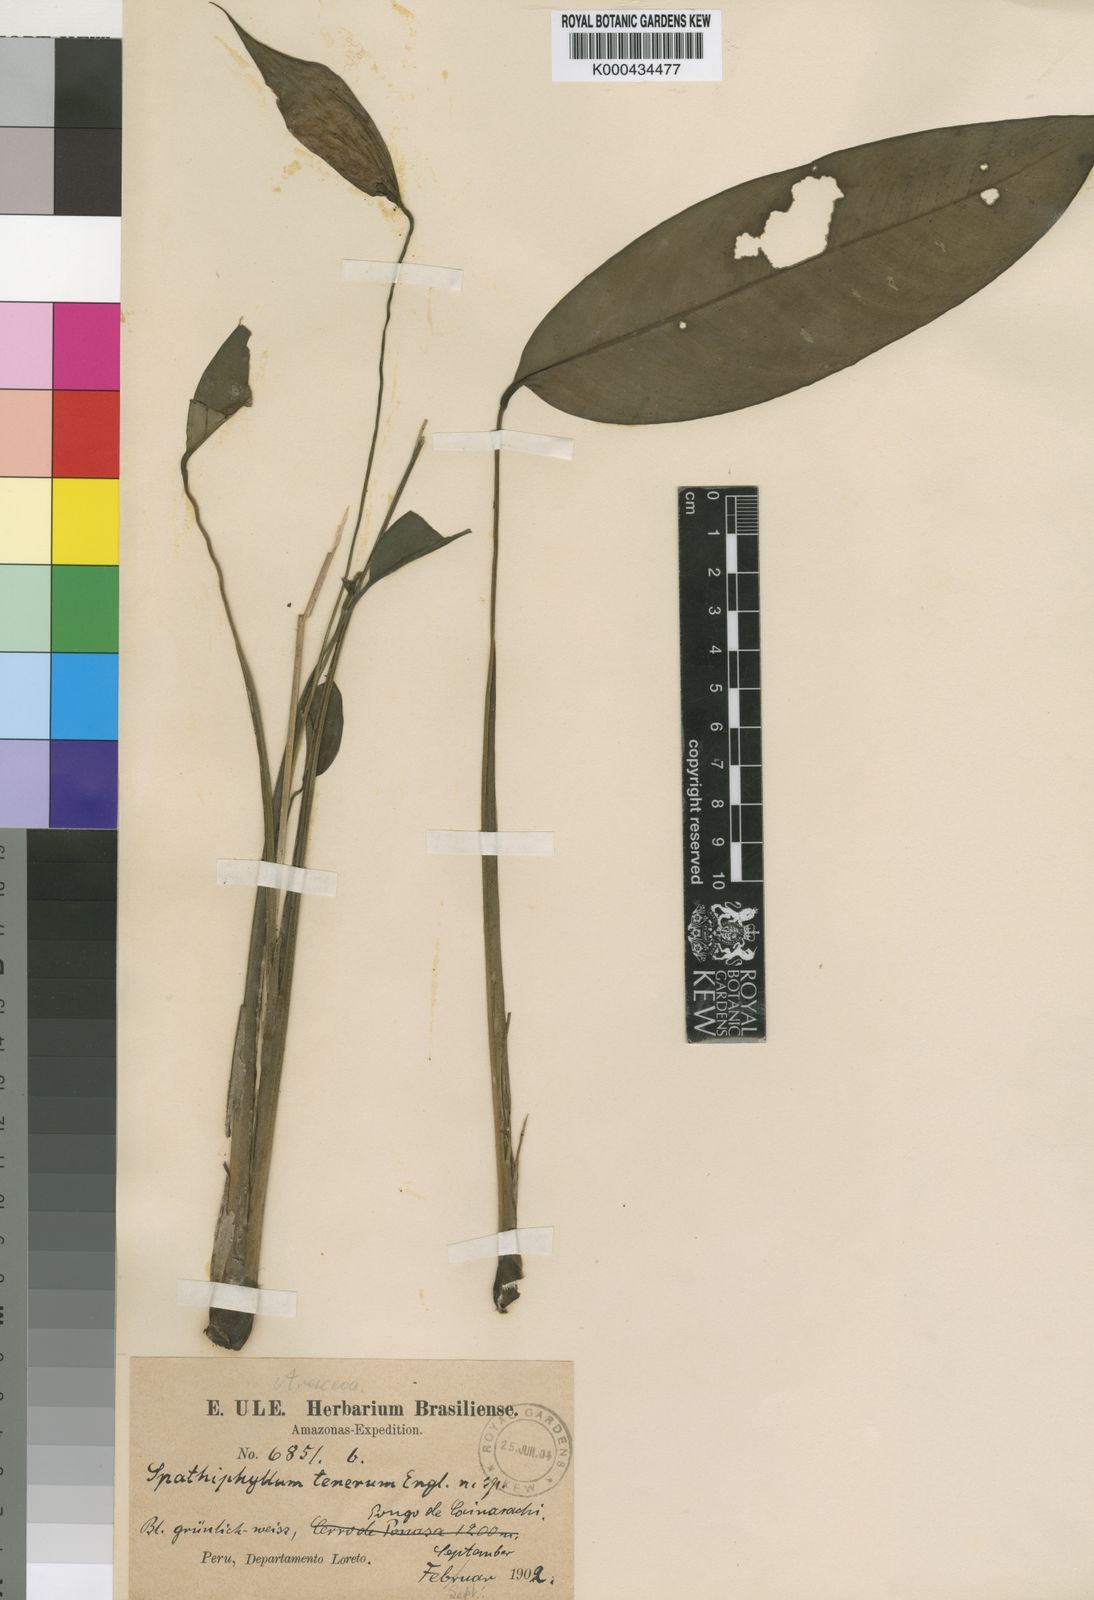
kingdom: Plantae
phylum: Tracheophyta
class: Liliopsida
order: Alismatales
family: Araceae
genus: Spathiphyllum
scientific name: Spathiphyllum tenerum
